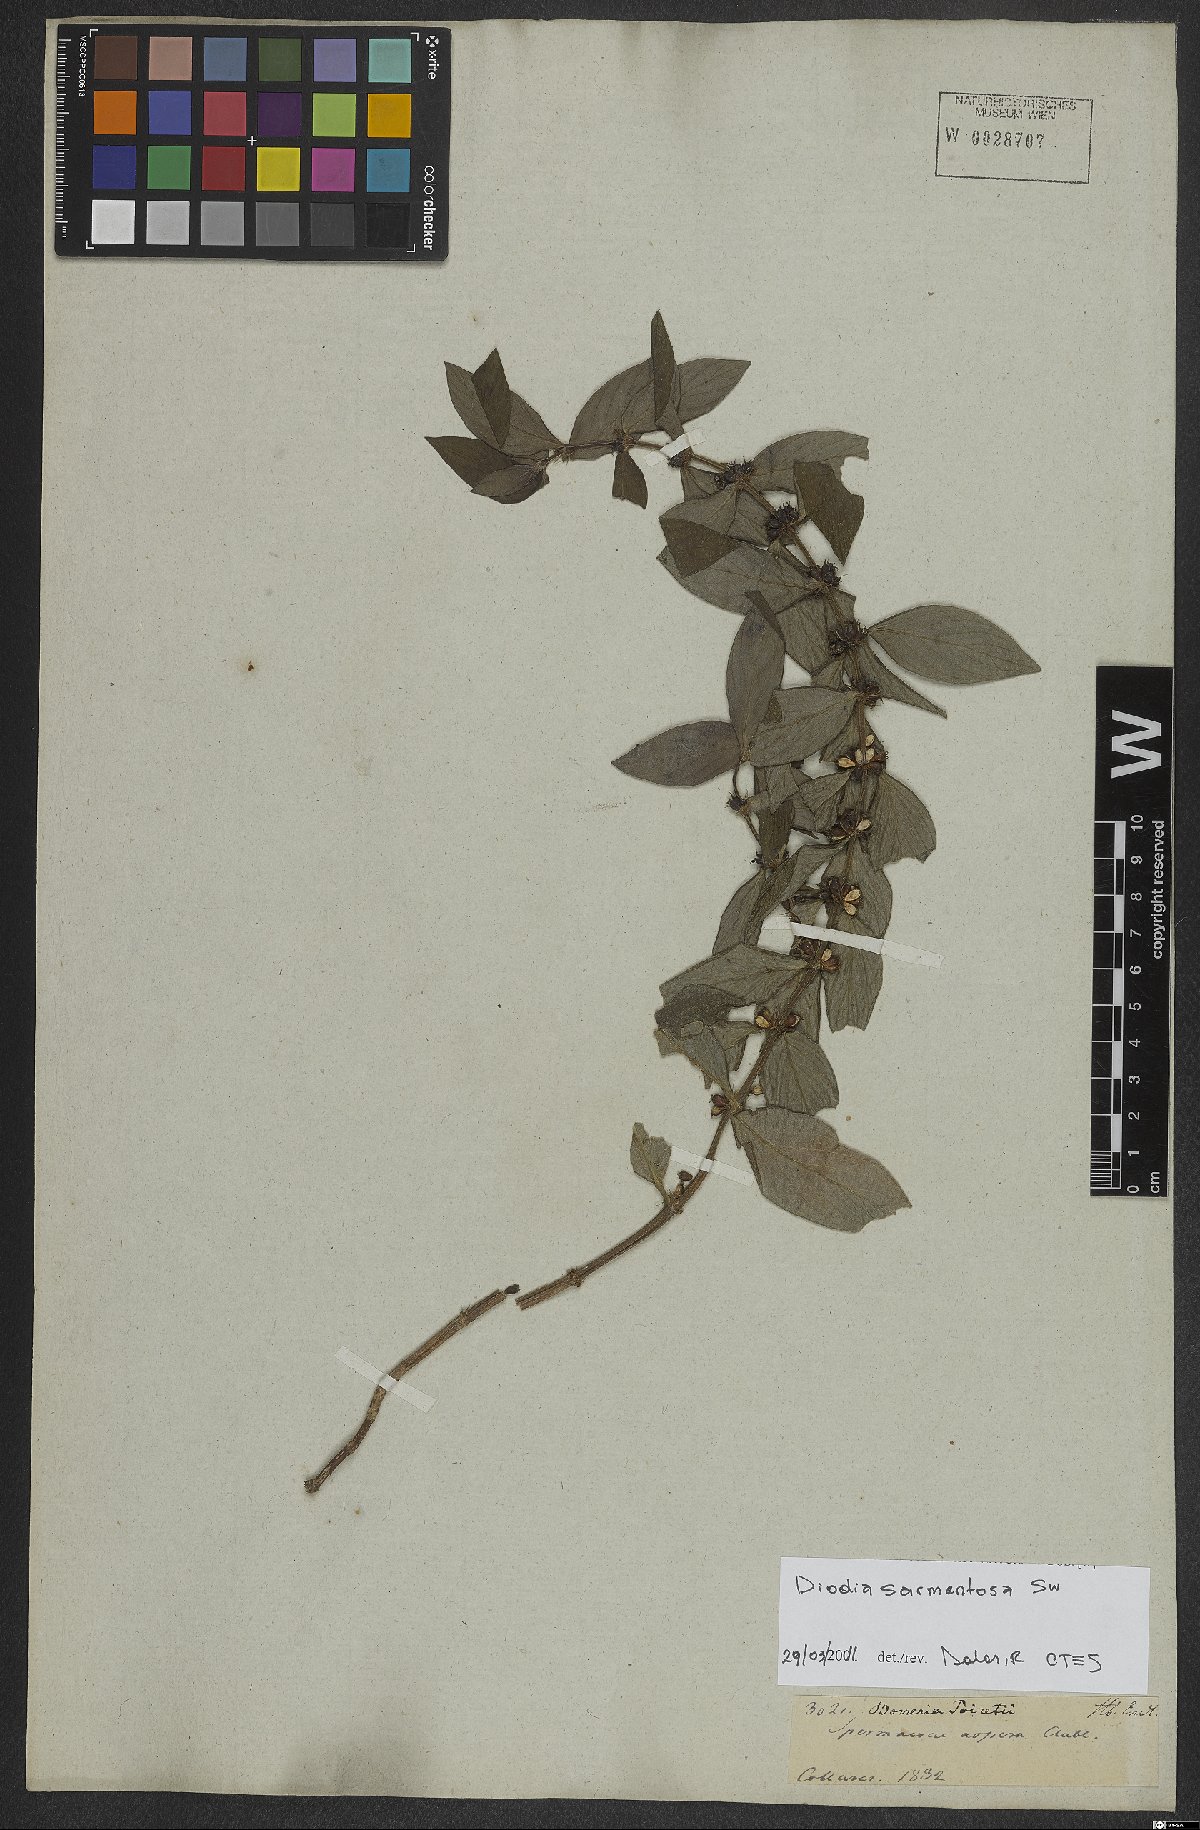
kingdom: Plantae
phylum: Tracheophyta
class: Magnoliopsida
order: Gentianales
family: Rubiaceae
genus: Hexasepalum
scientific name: Hexasepalum sarmentosum
